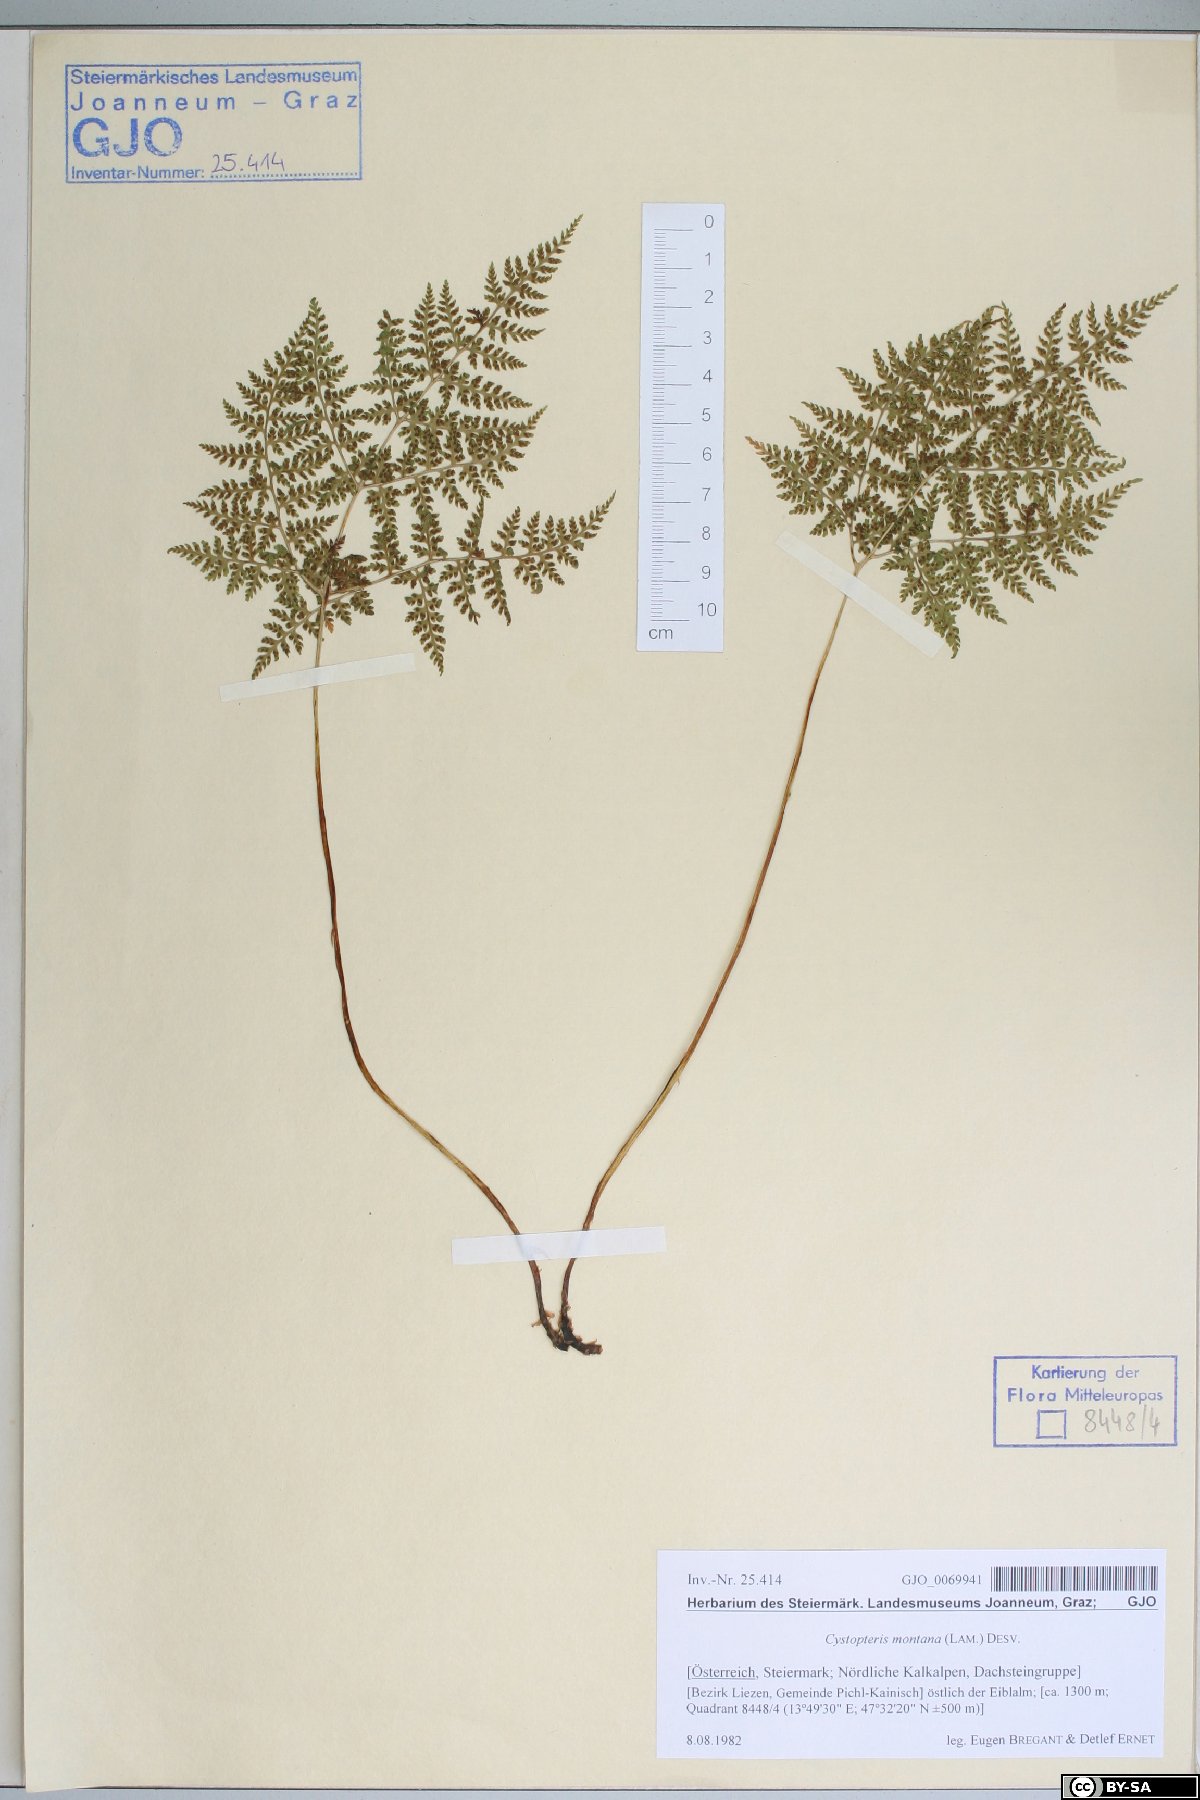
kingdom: Plantae
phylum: Tracheophyta
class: Polypodiopsida
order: Polypodiales
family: Cystopteridaceae
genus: Cystopteris
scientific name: Cystopteris montana
